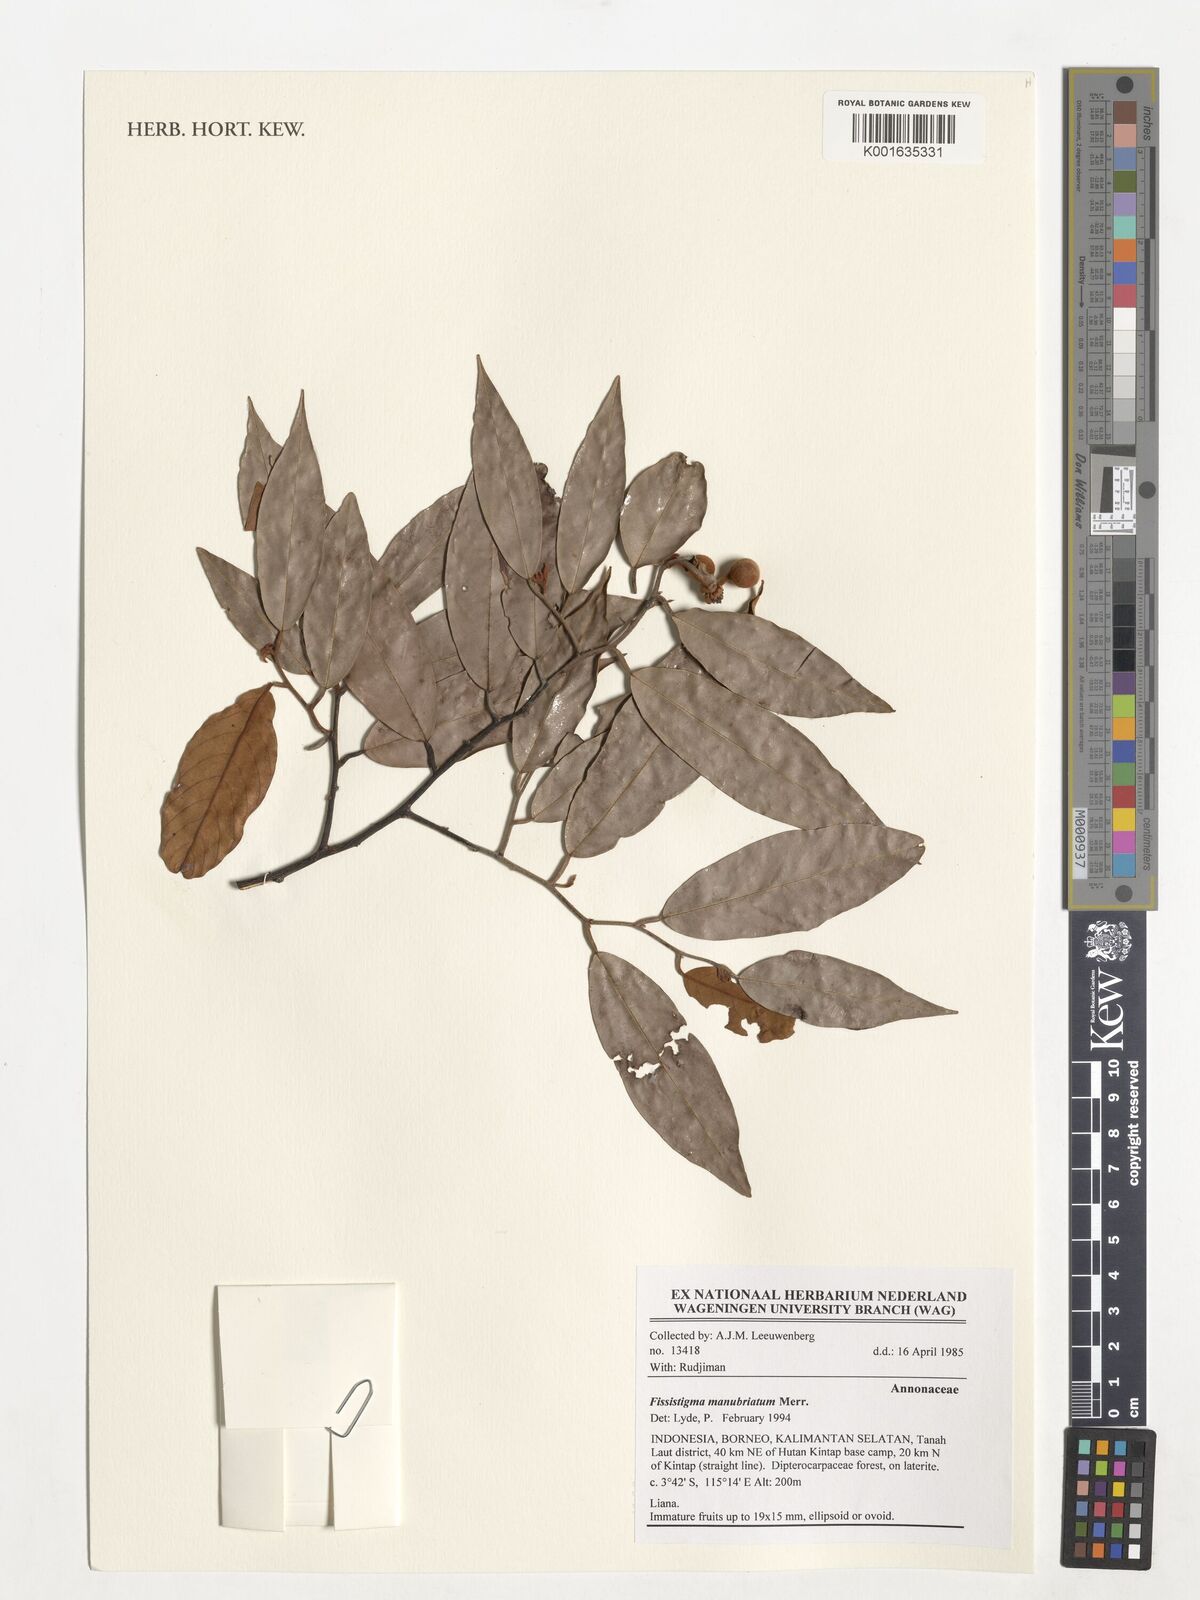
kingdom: Plantae
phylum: Tracheophyta
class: Magnoliopsida
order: Magnoliales
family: Annonaceae
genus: Fissistigma
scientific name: Fissistigma manubriatum
